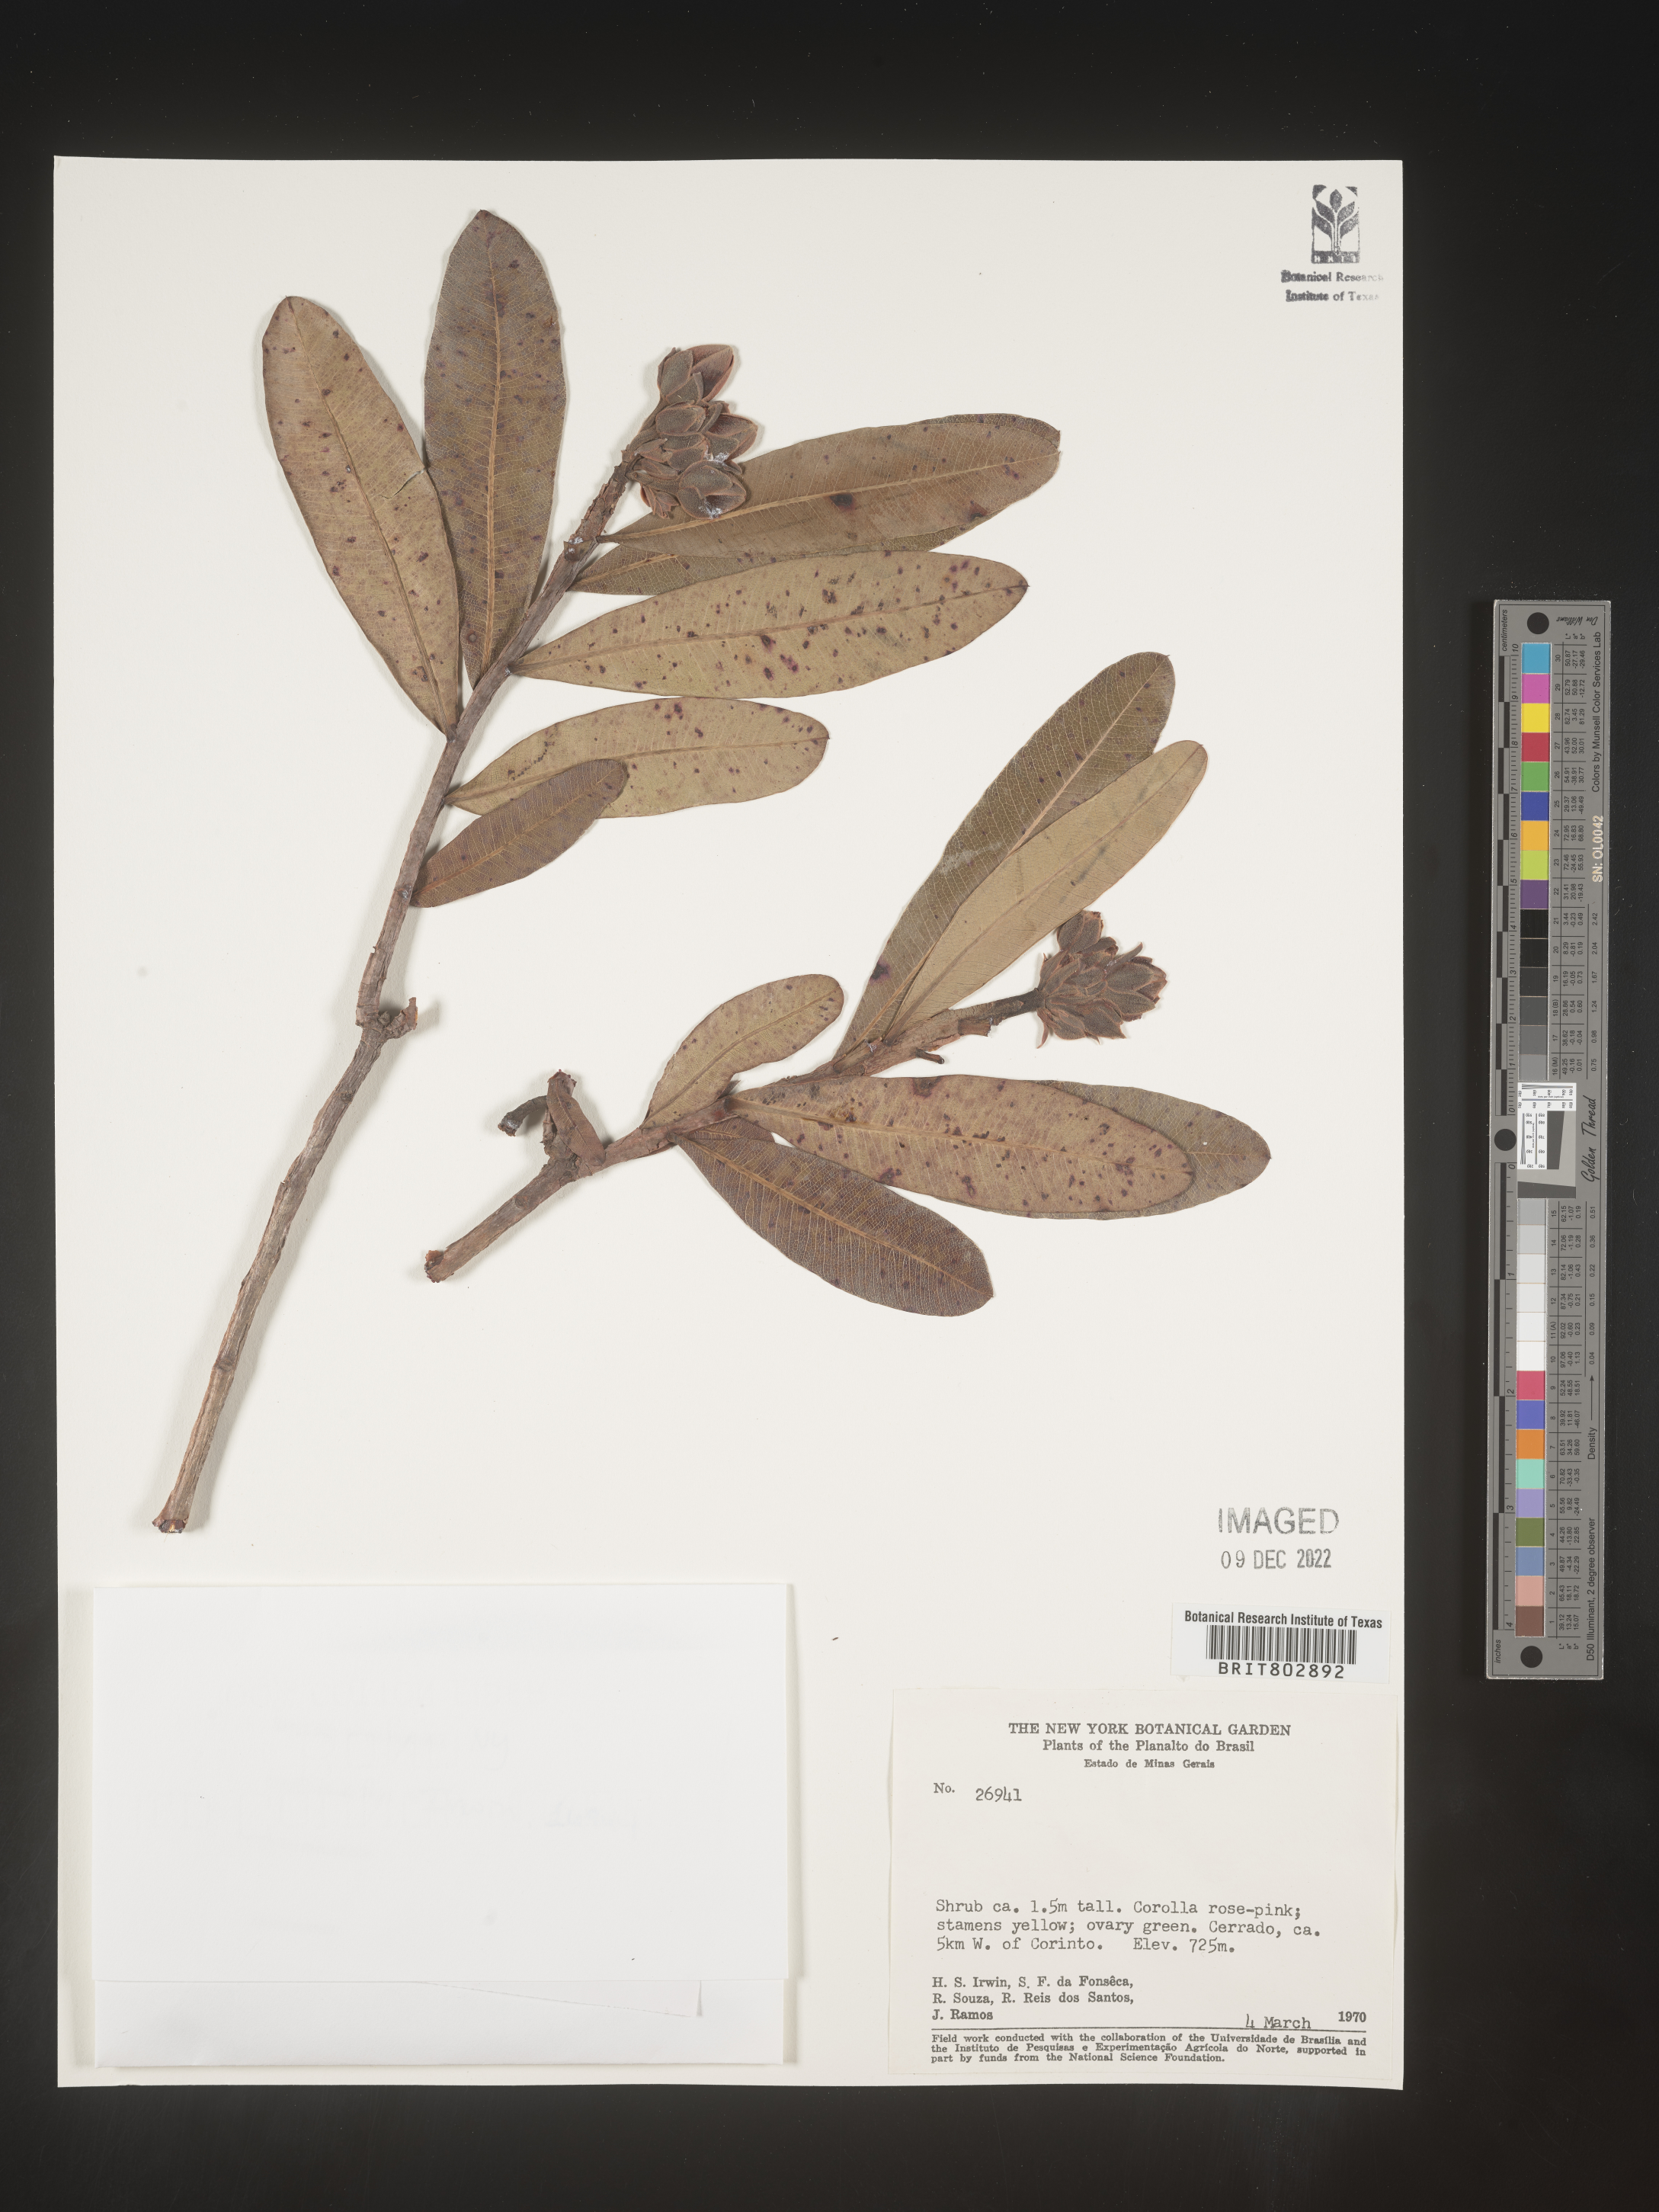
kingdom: Plantae
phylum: Tracheophyta
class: Magnoliopsida
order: Malpighiales
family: Calophyllaceae
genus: Kielmeyera
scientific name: Kielmeyera
